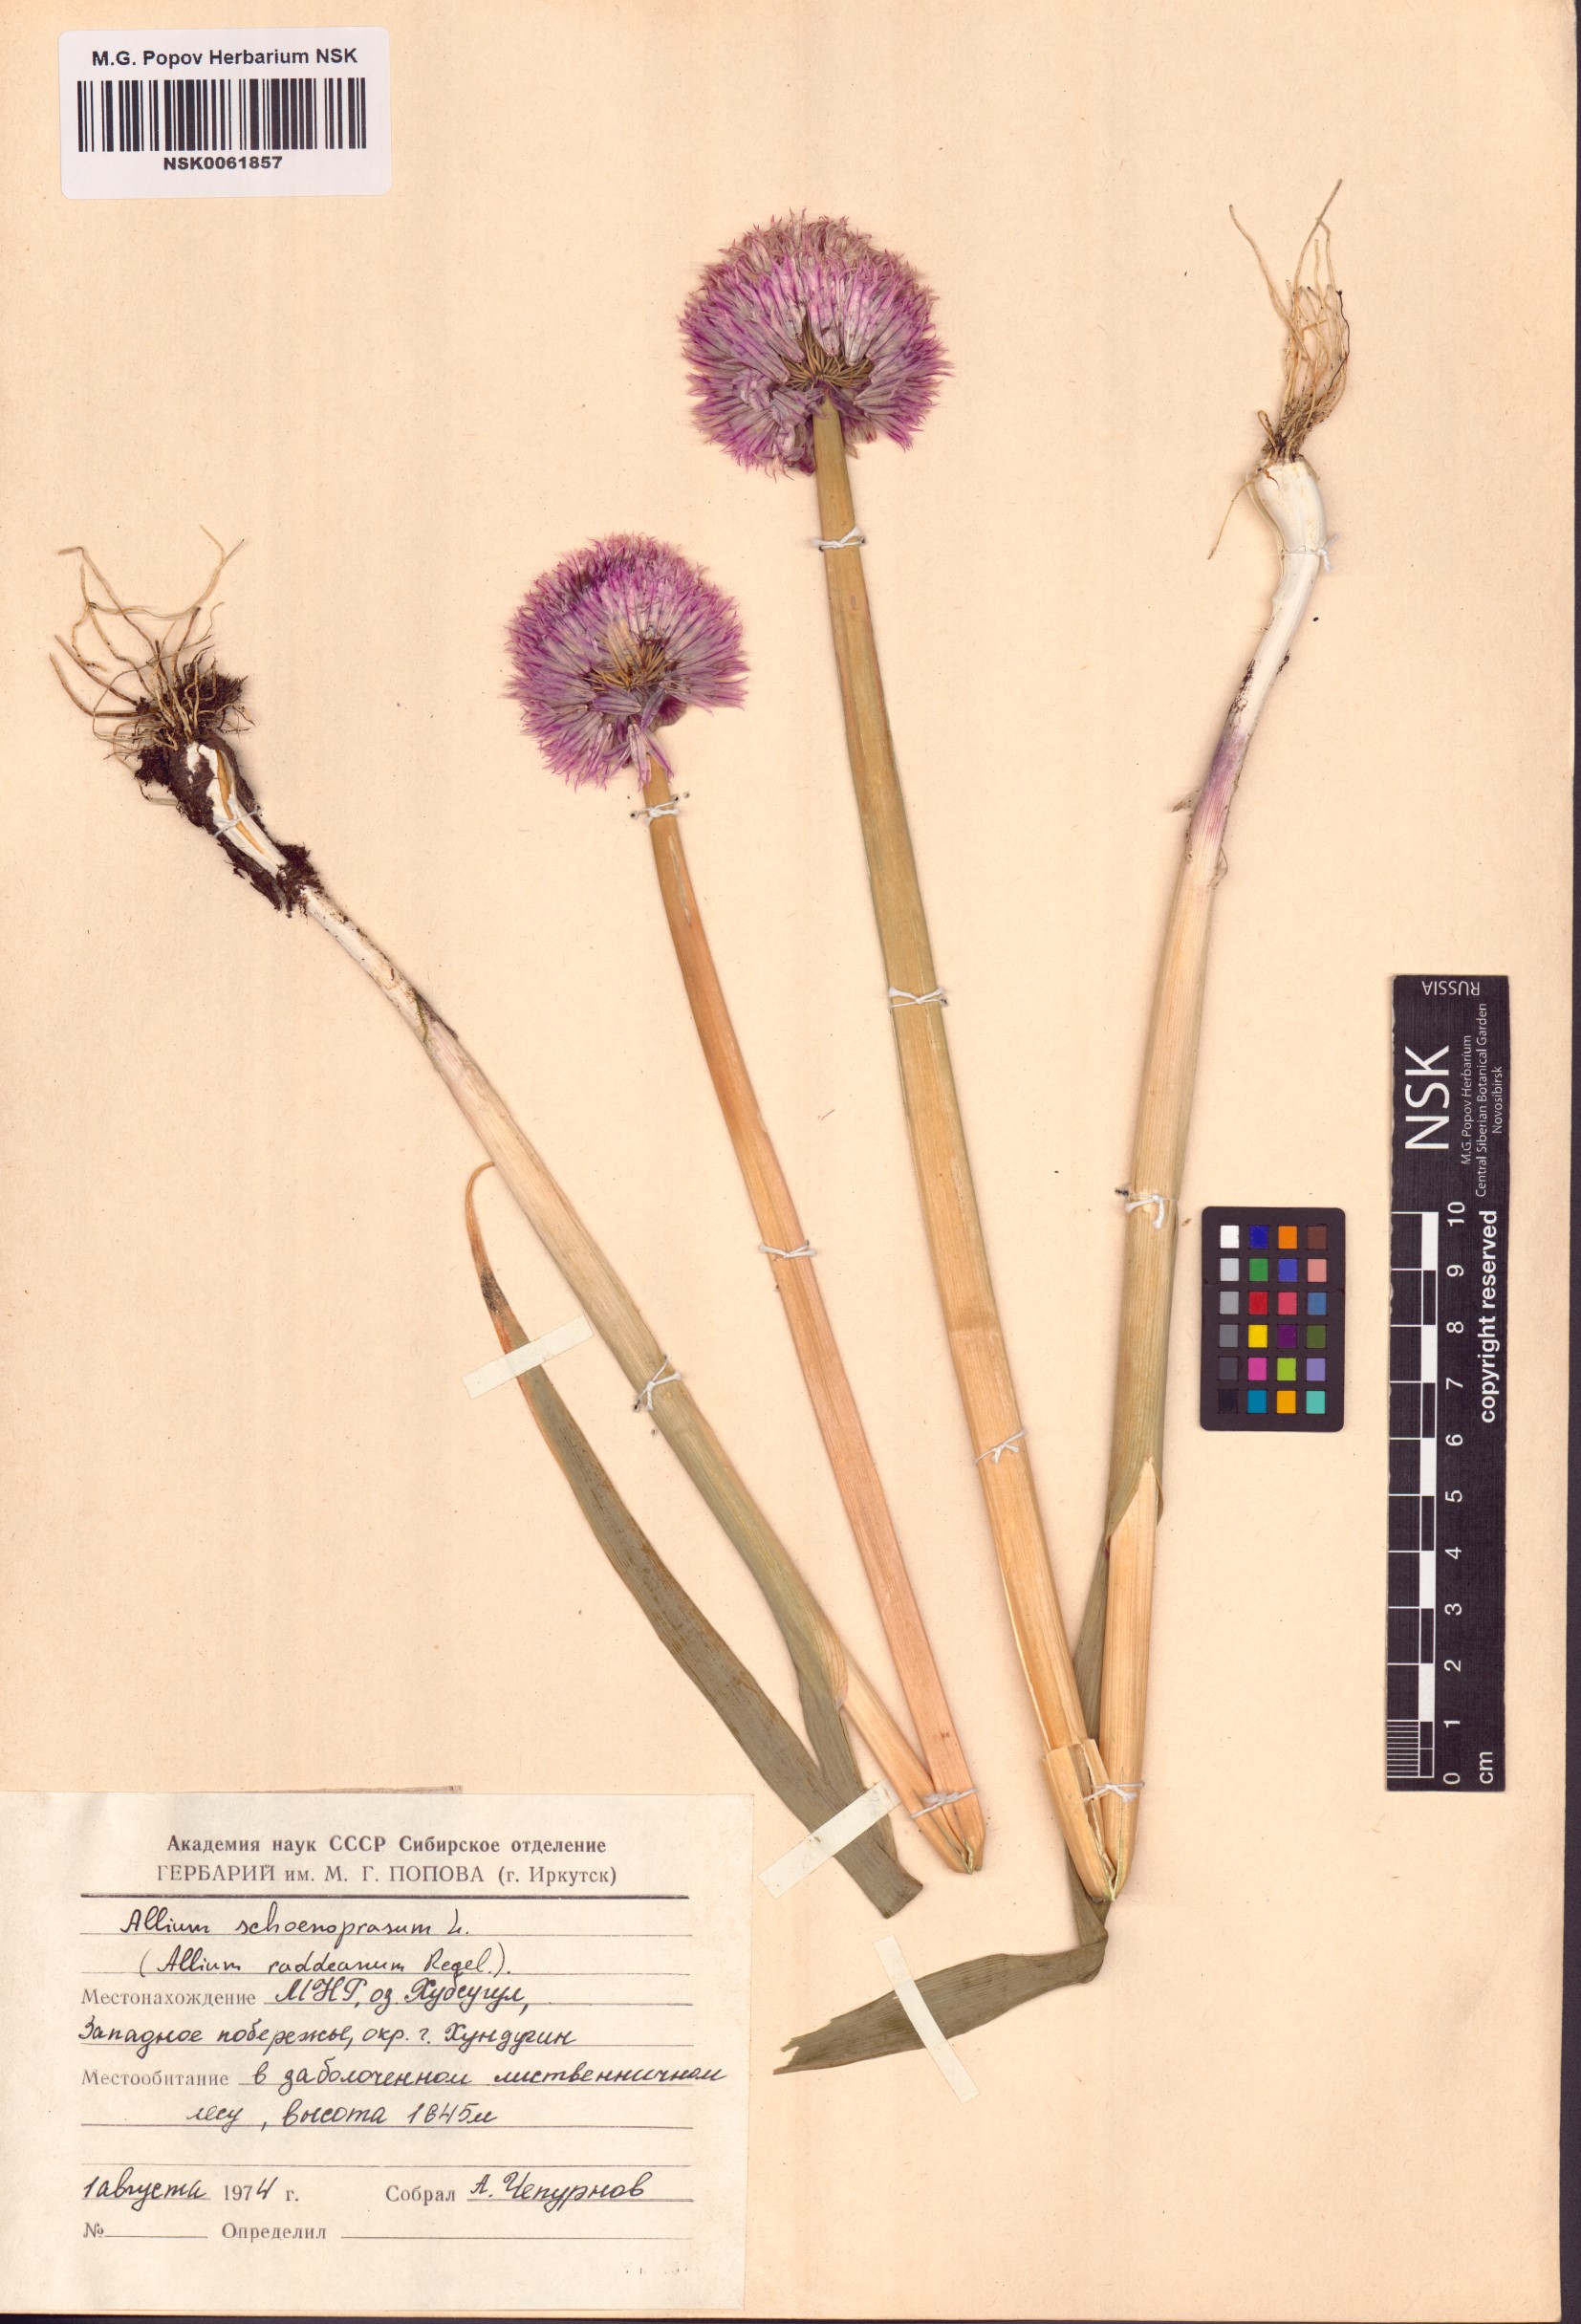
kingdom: Plantae
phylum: Tracheophyta
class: Liliopsida
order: Asparagales
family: Amaryllidaceae
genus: Allium
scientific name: Allium schoenoprasum
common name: Chives
